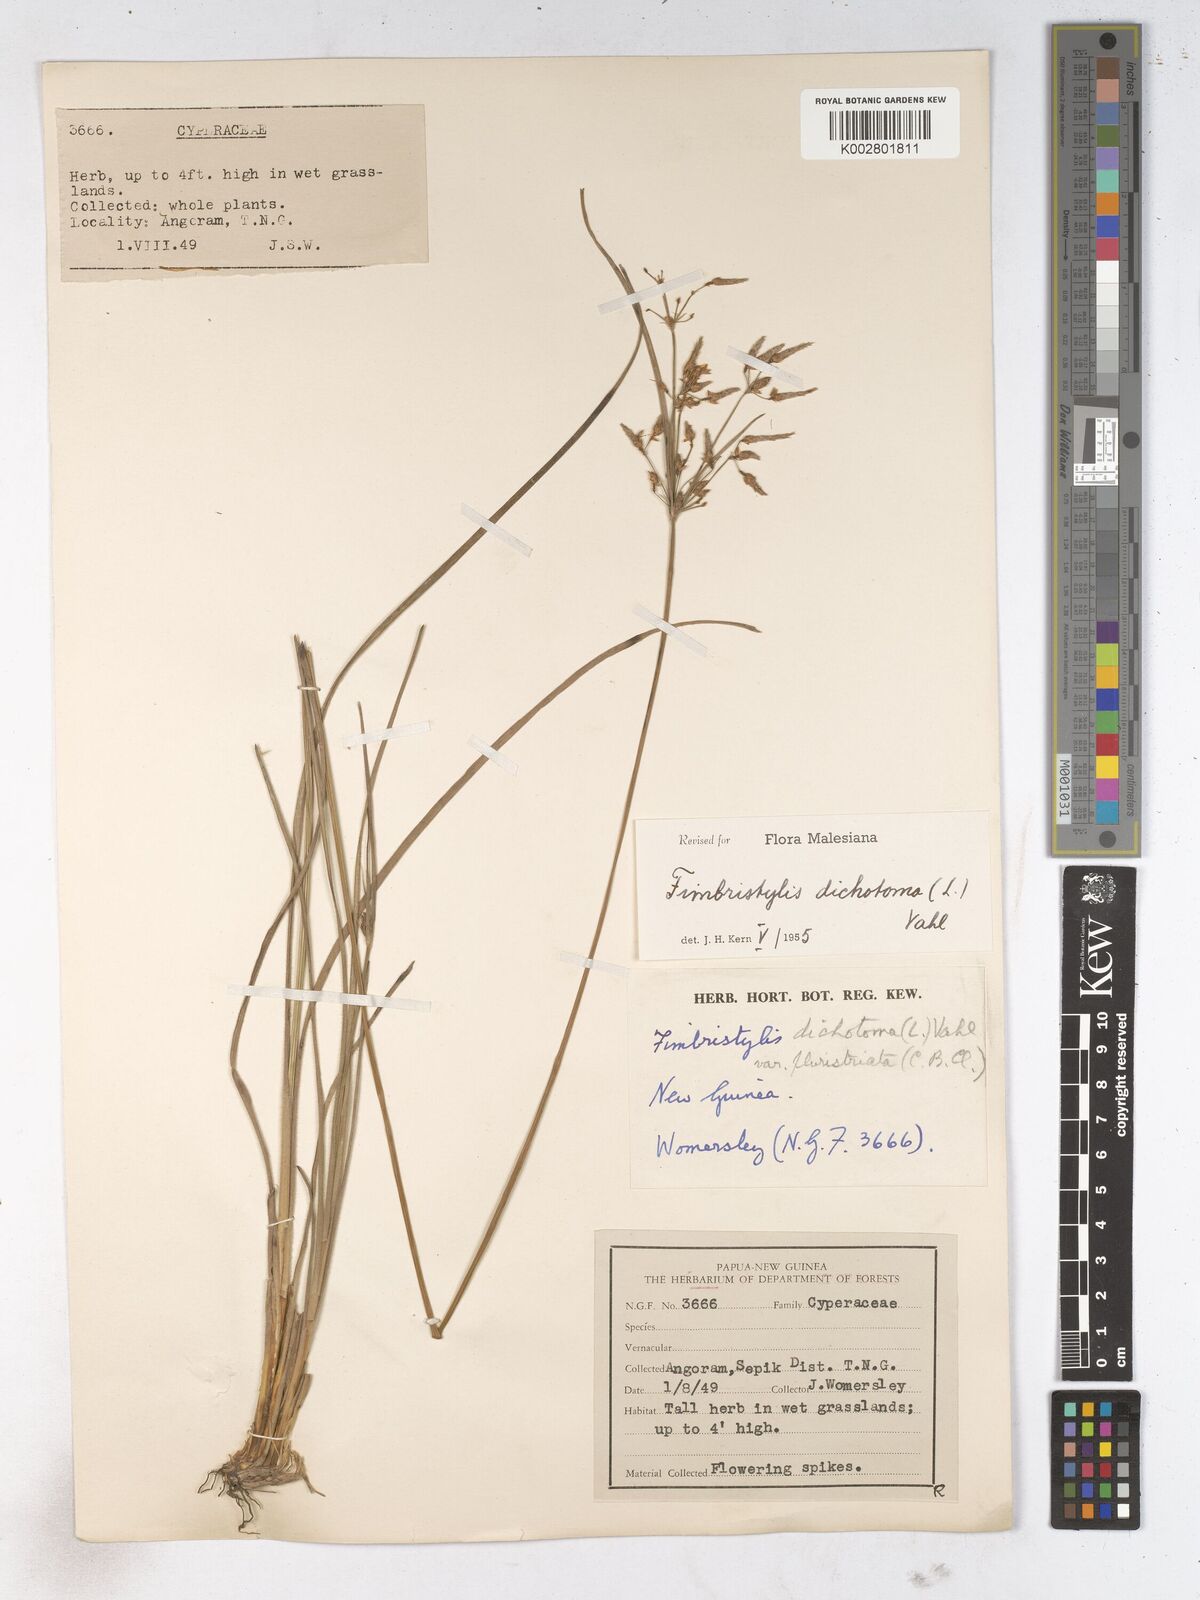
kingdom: Plantae
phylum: Tracheophyta
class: Liliopsida
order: Poales
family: Cyperaceae
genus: Fimbristylis
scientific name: Fimbristylis dichotoma
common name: Forked fimbry
